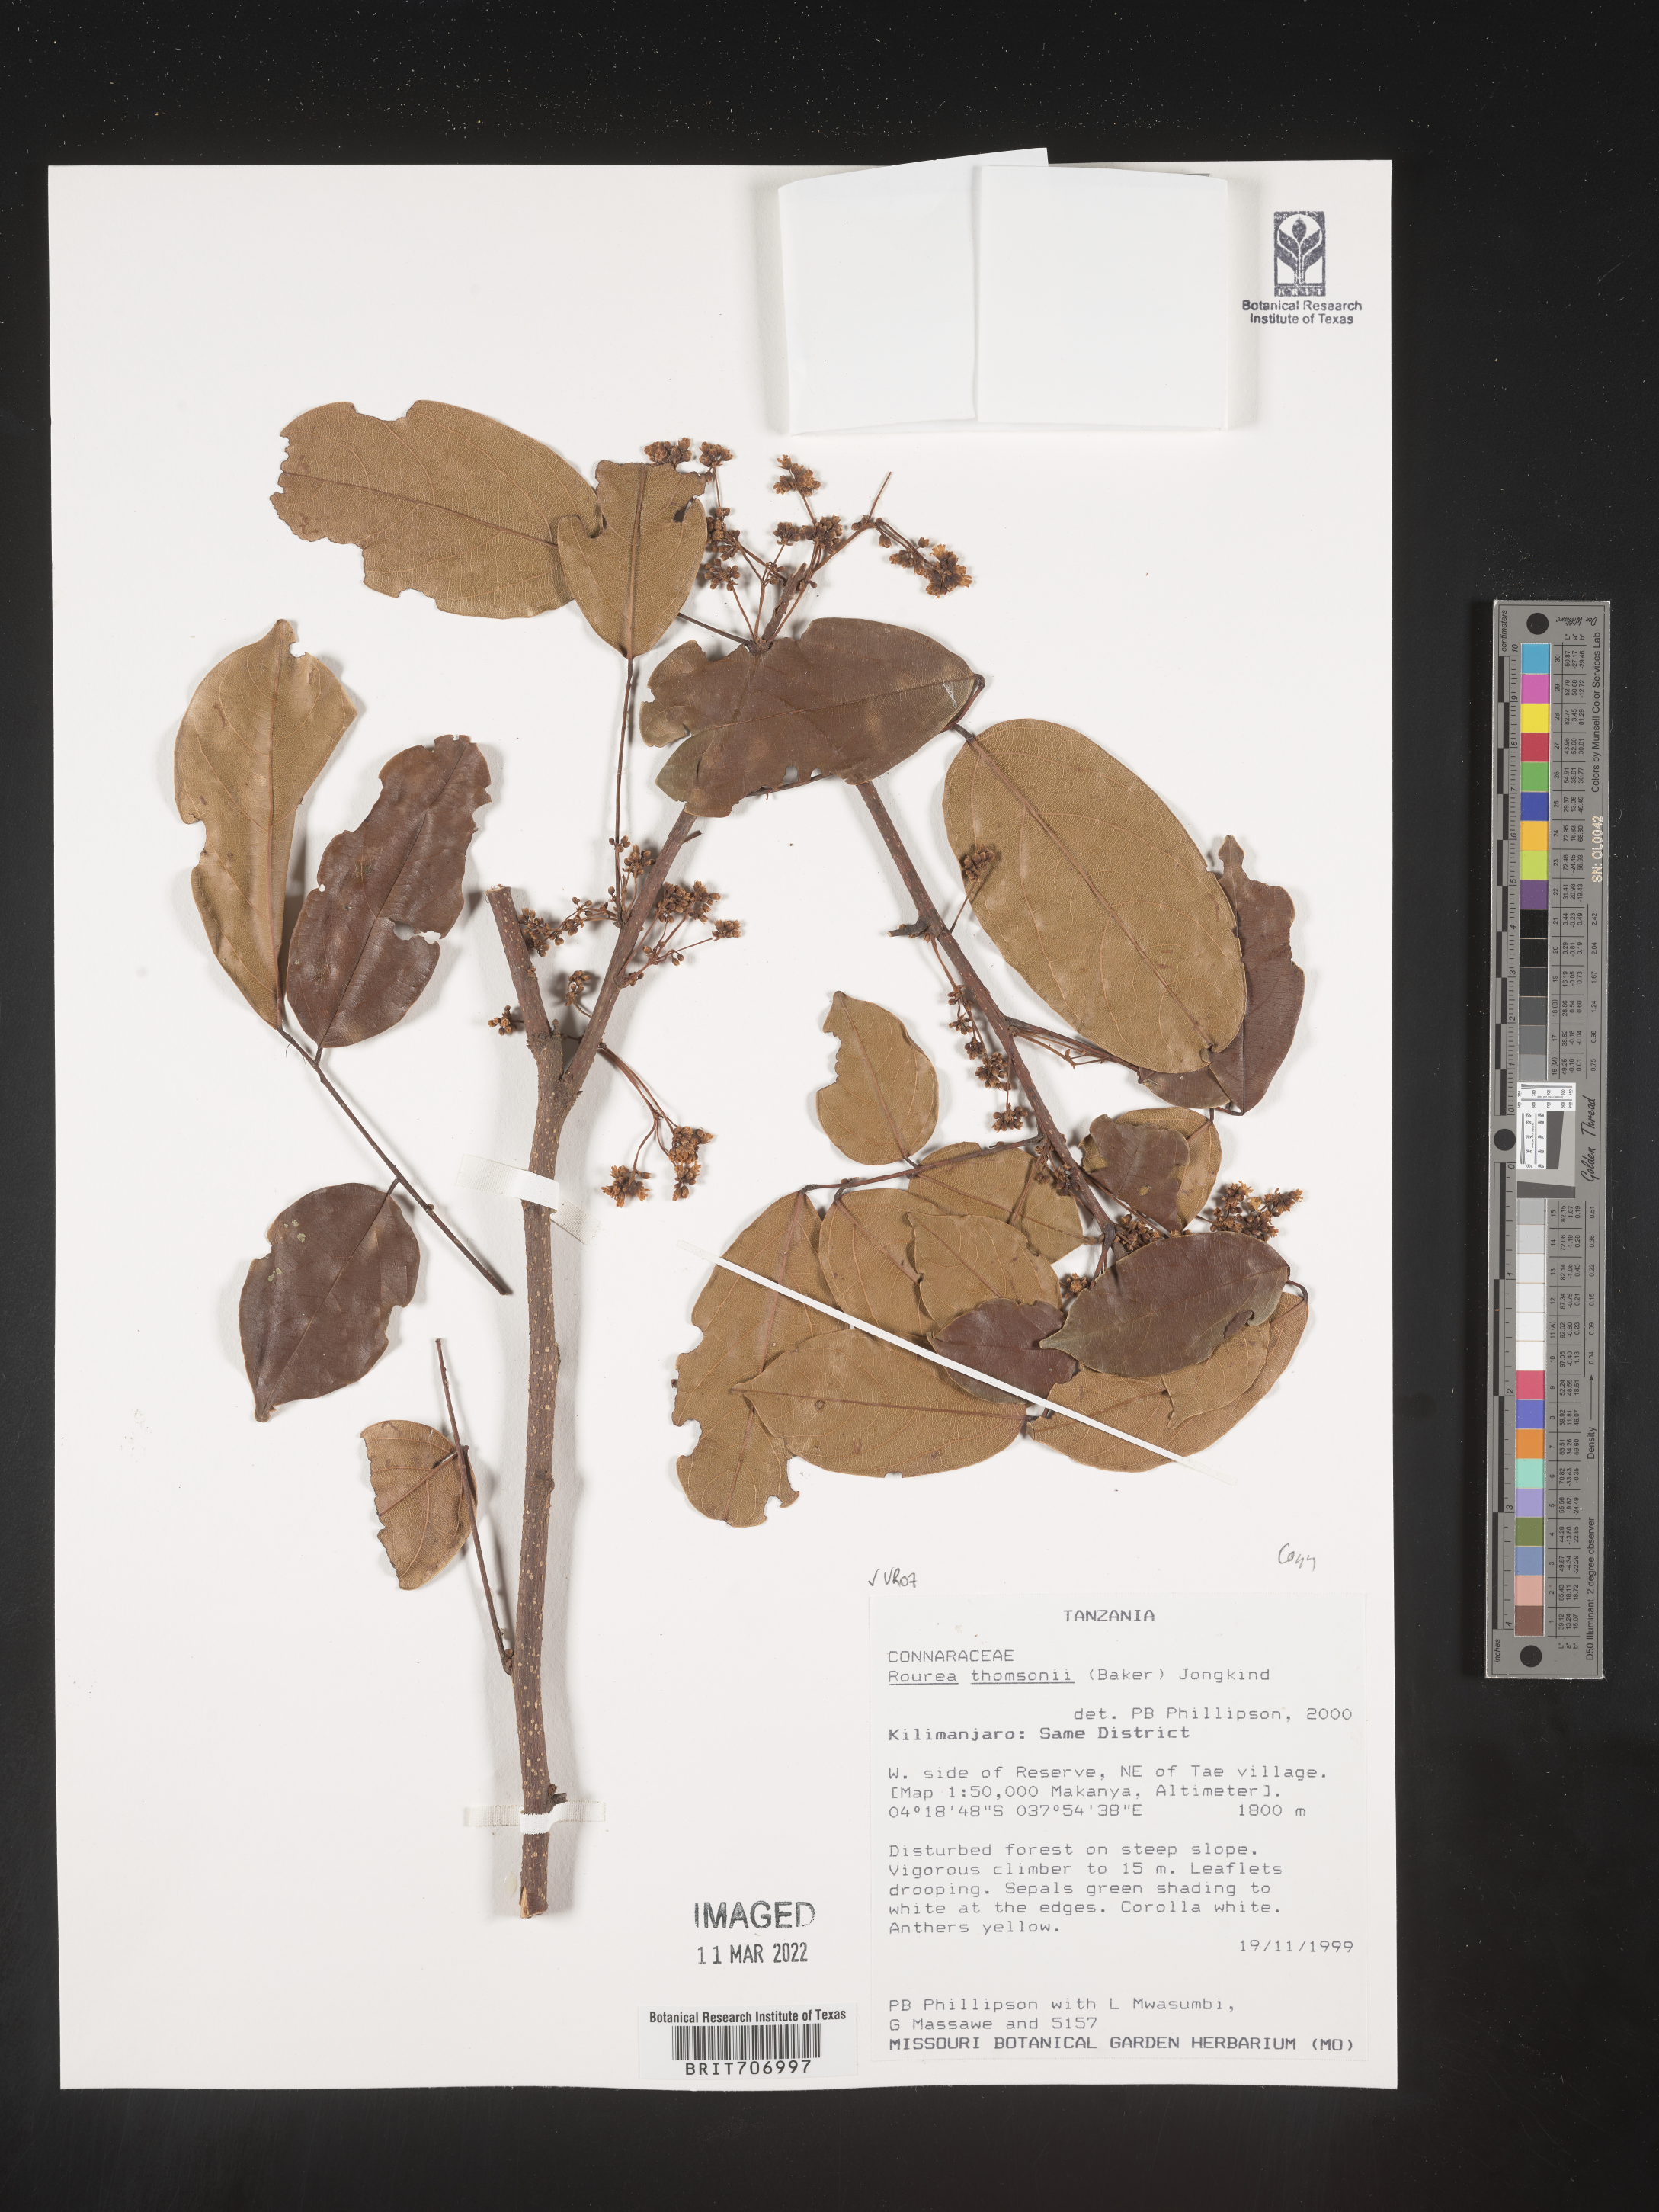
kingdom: Plantae
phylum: Tracheophyta
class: Magnoliopsida
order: Oxalidales
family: Connaraceae
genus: Rourea
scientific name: Rourea
